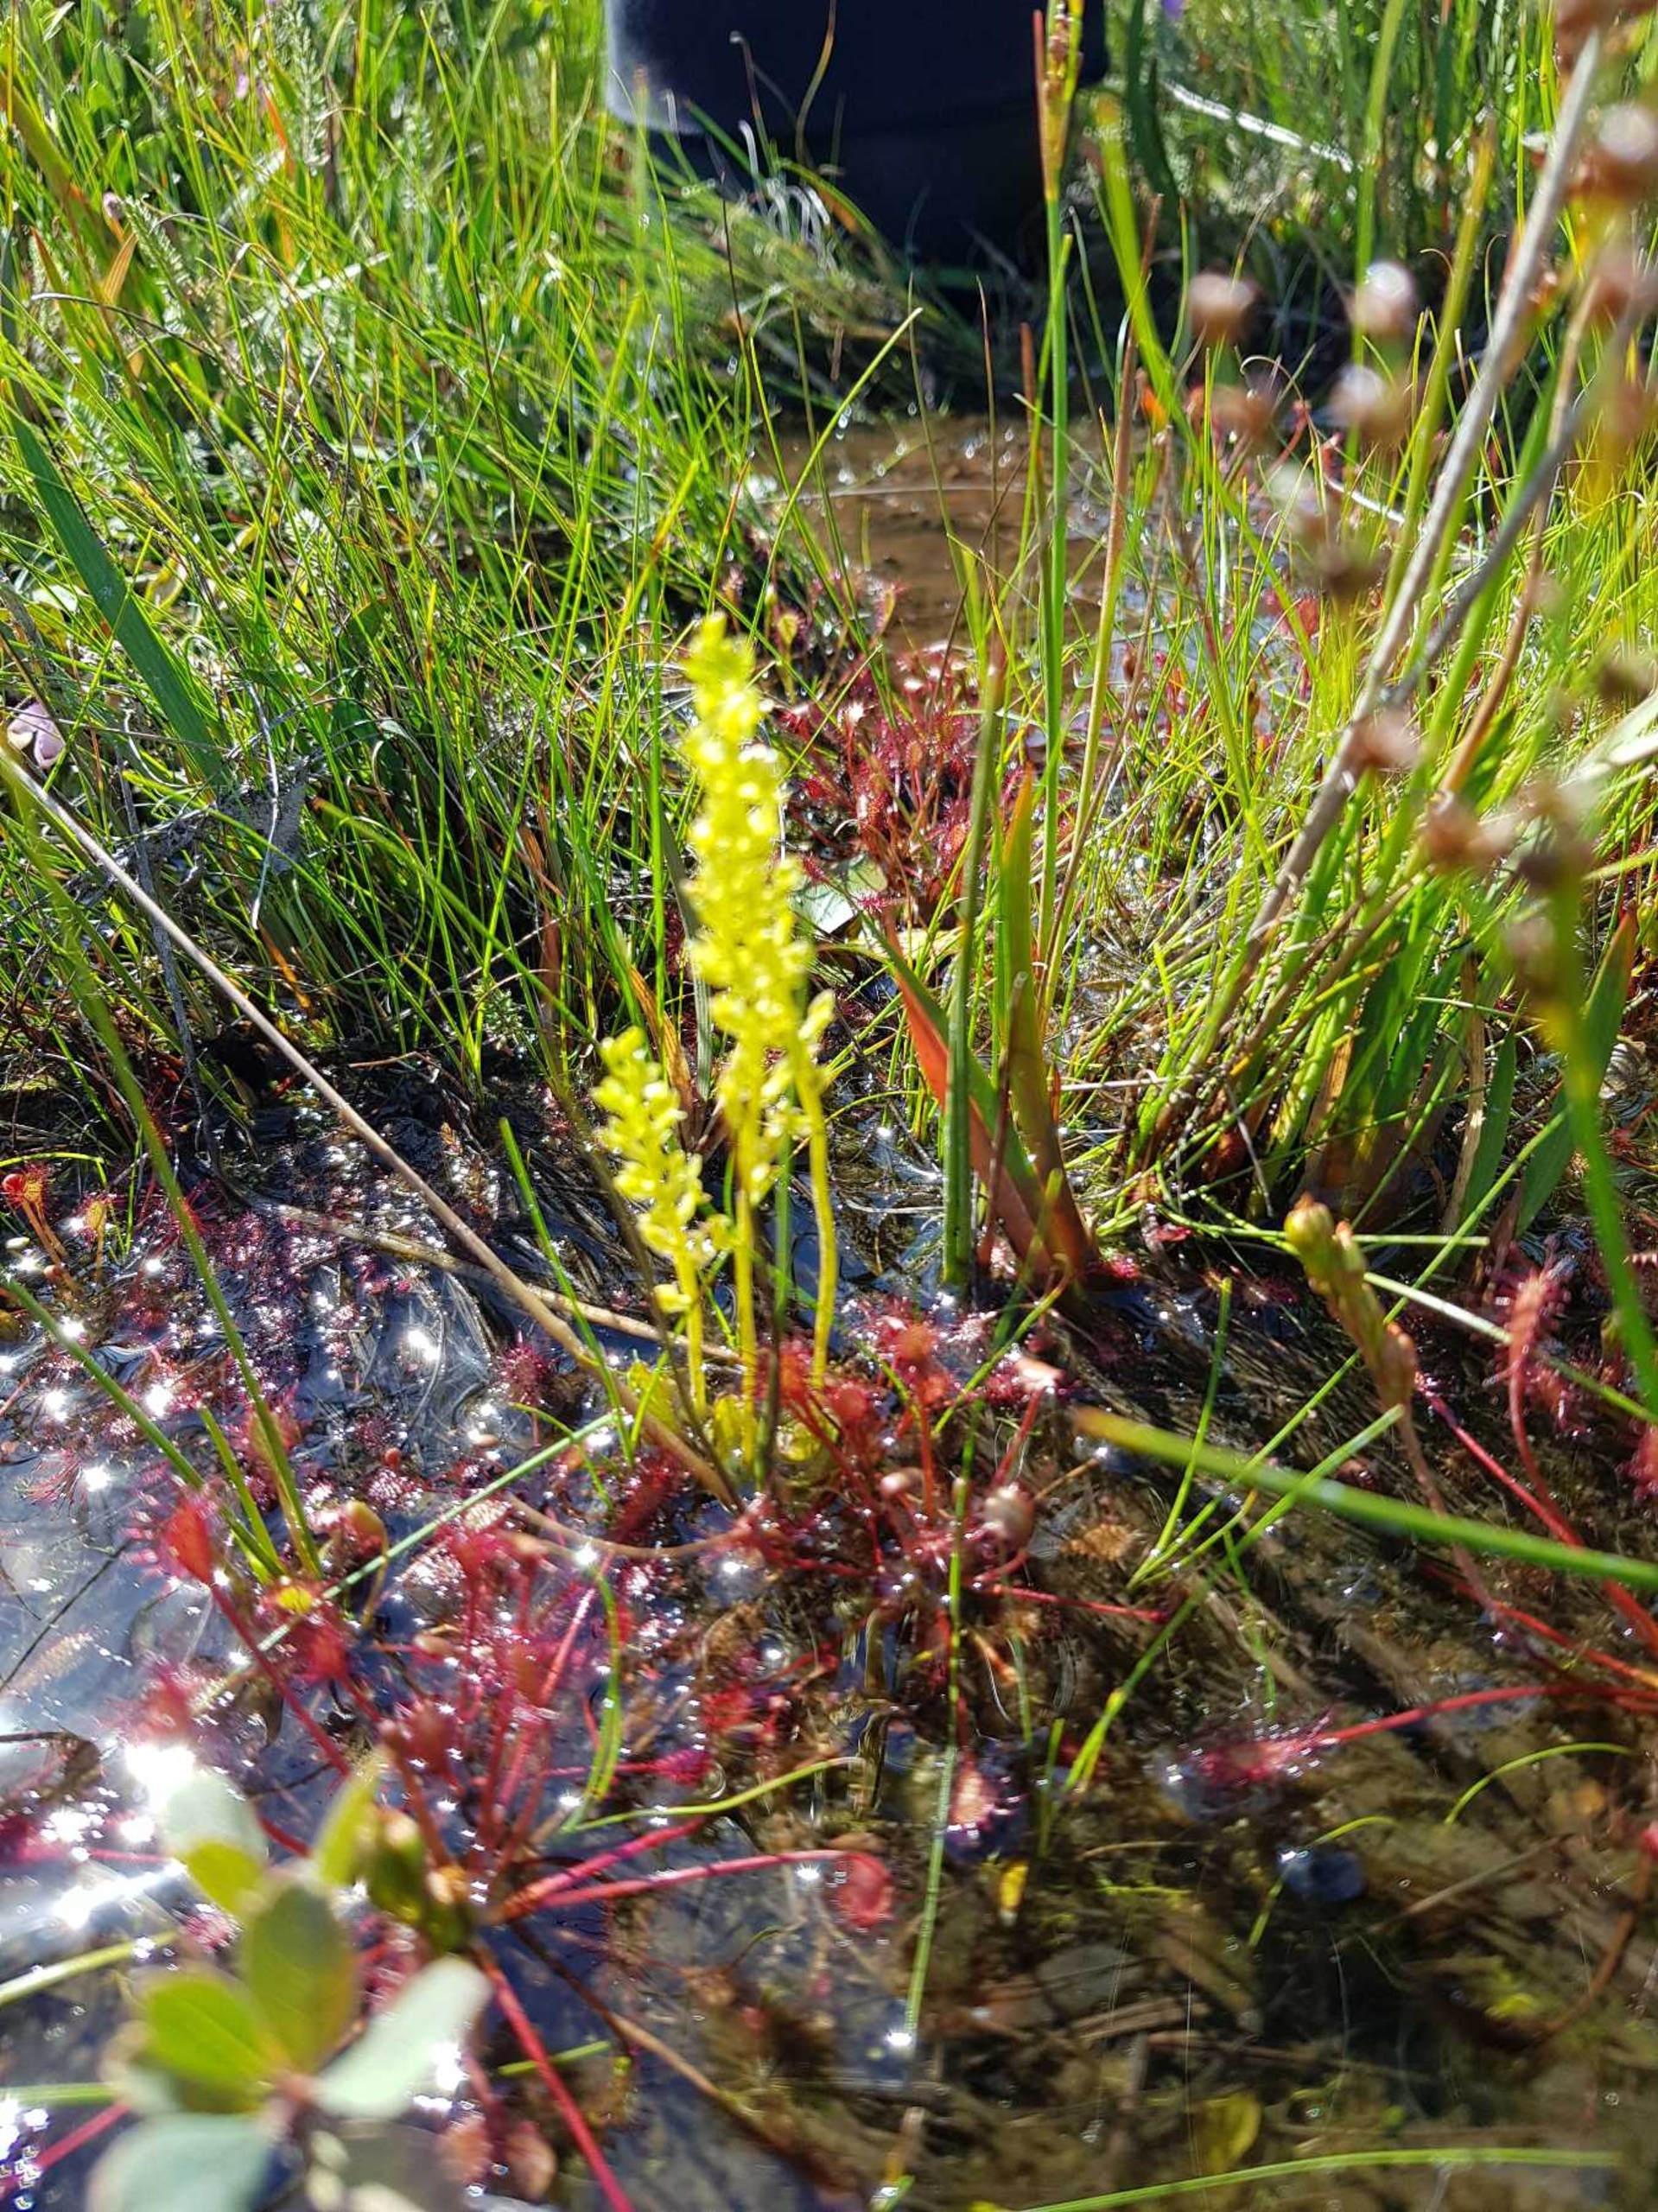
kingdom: Plantae
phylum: Tracheophyta
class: Liliopsida
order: Asparagales
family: Orchidaceae
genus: Hammarbya
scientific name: Hammarbya paludosa
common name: Hjertelæbe
